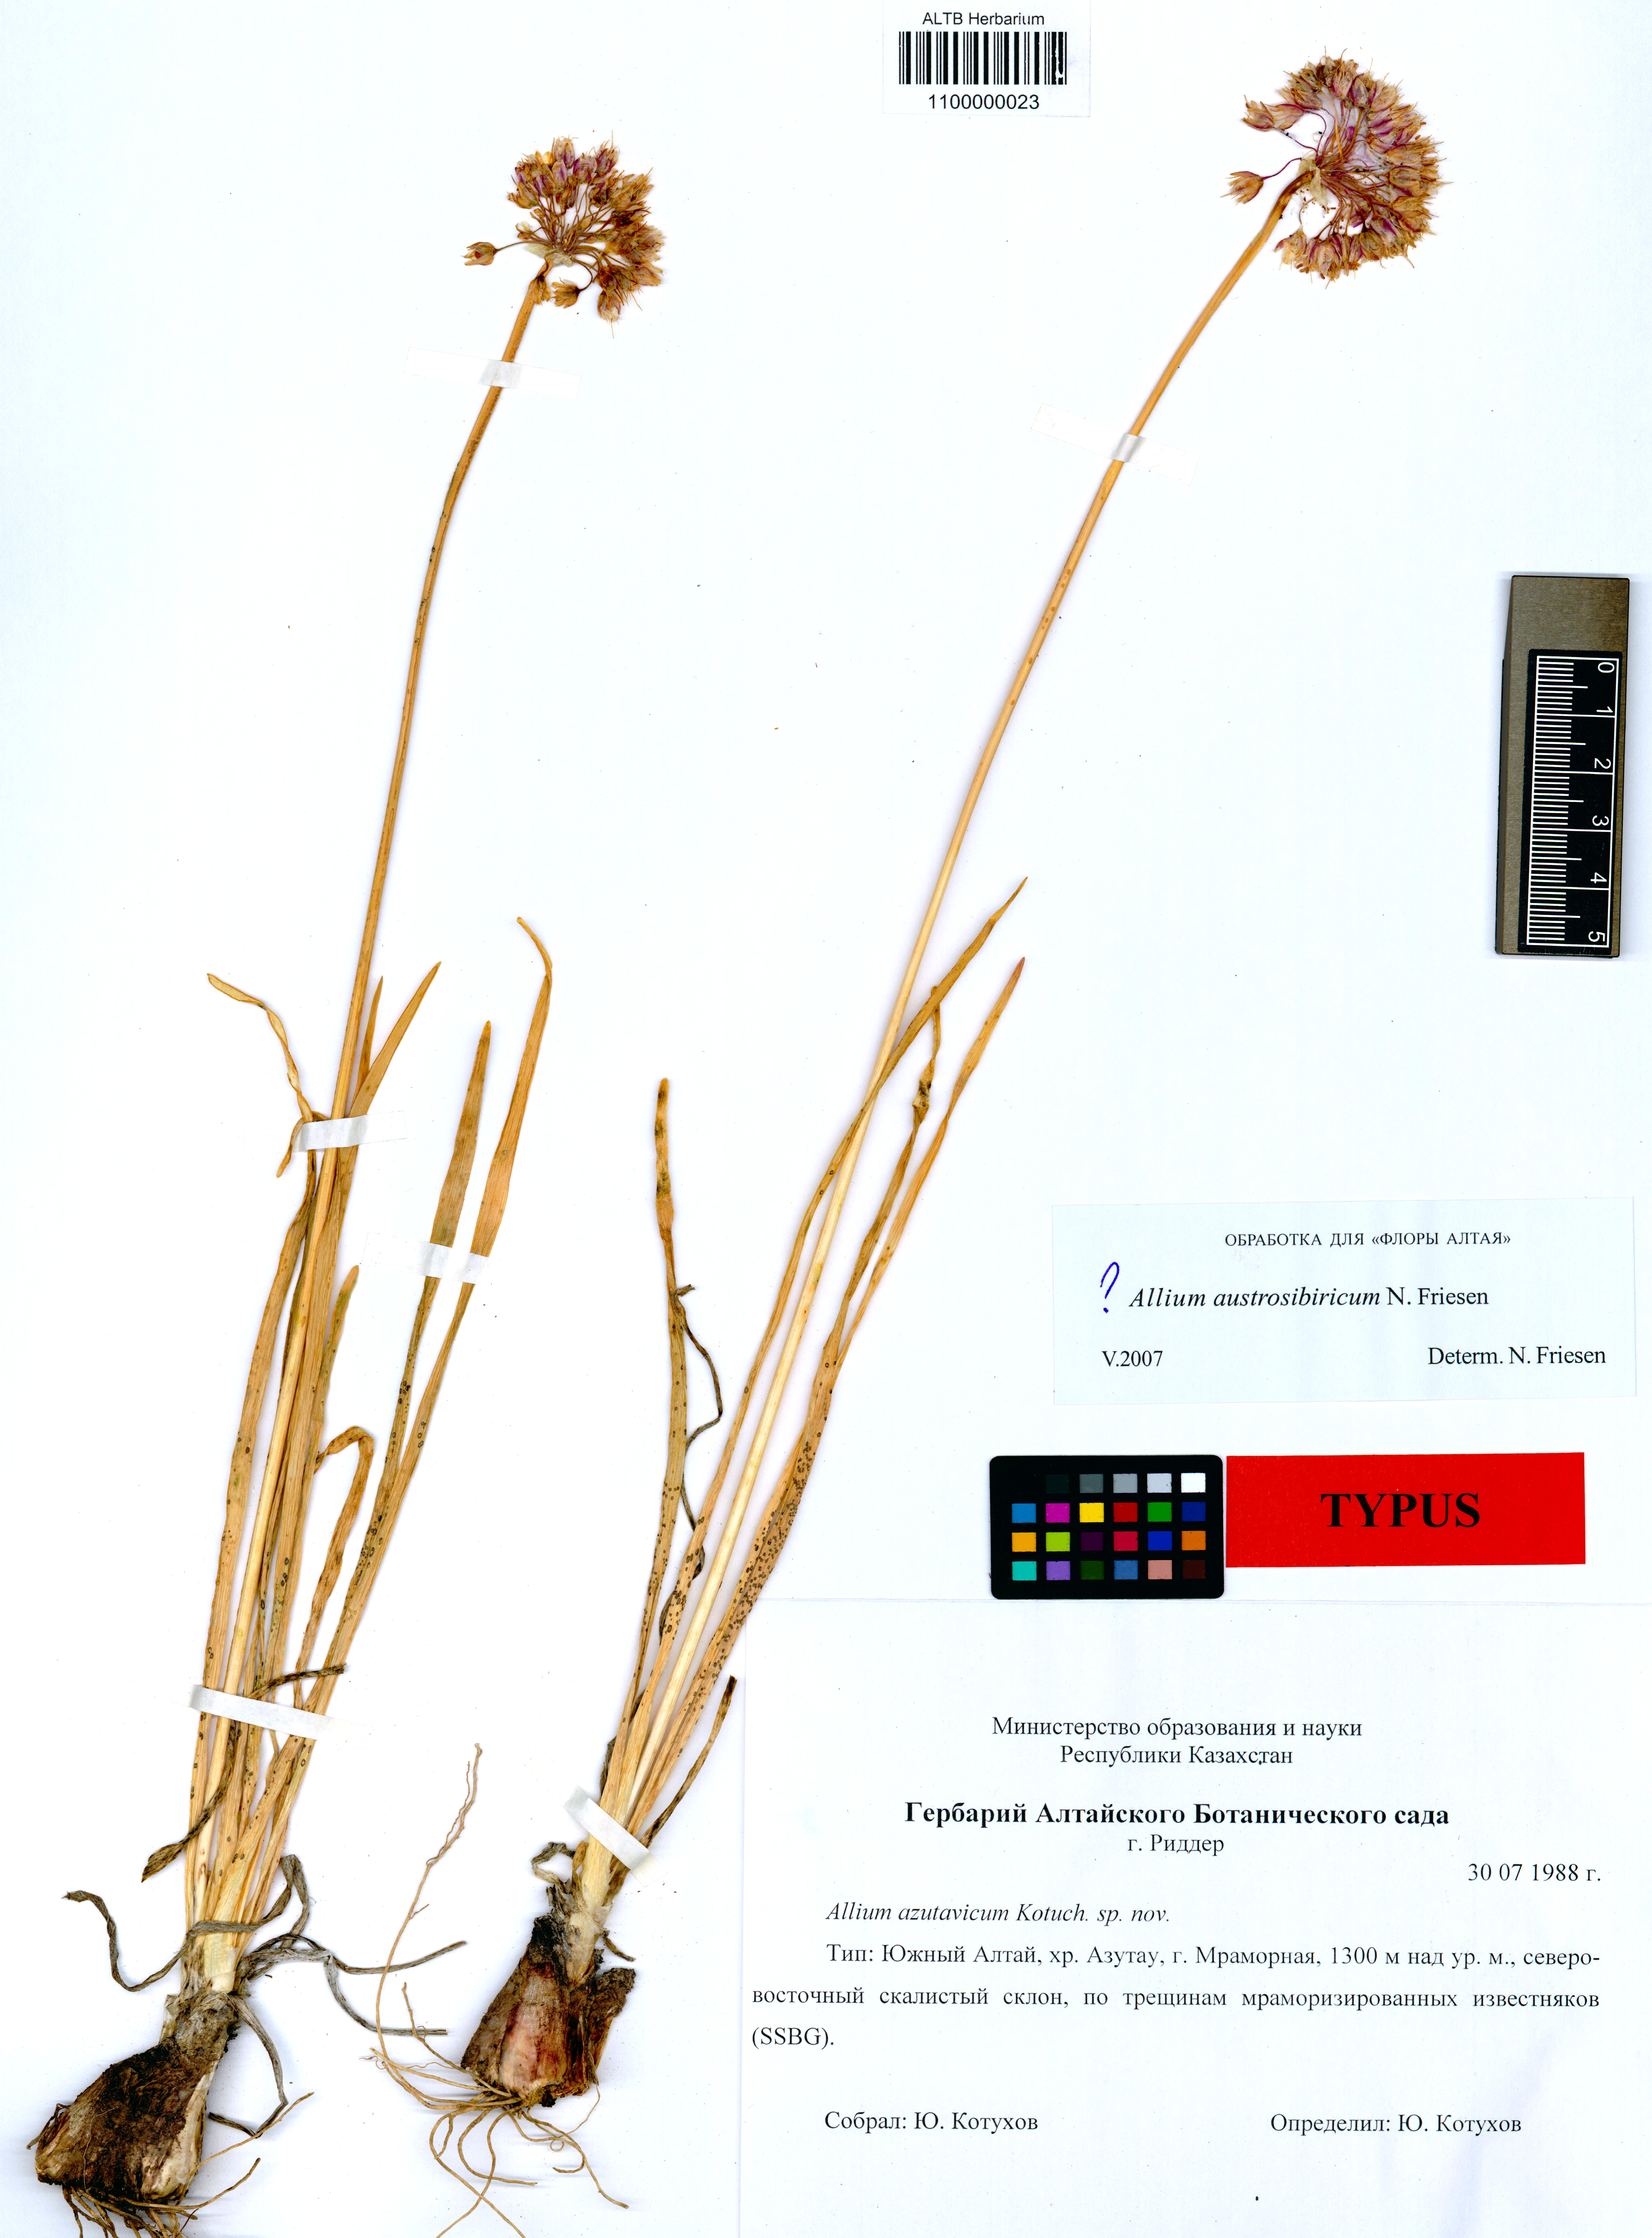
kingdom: Plantae
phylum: Tracheophyta
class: Liliopsida
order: Asparagales
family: Amaryllidaceae
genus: Allium
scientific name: Allium azutavicum
